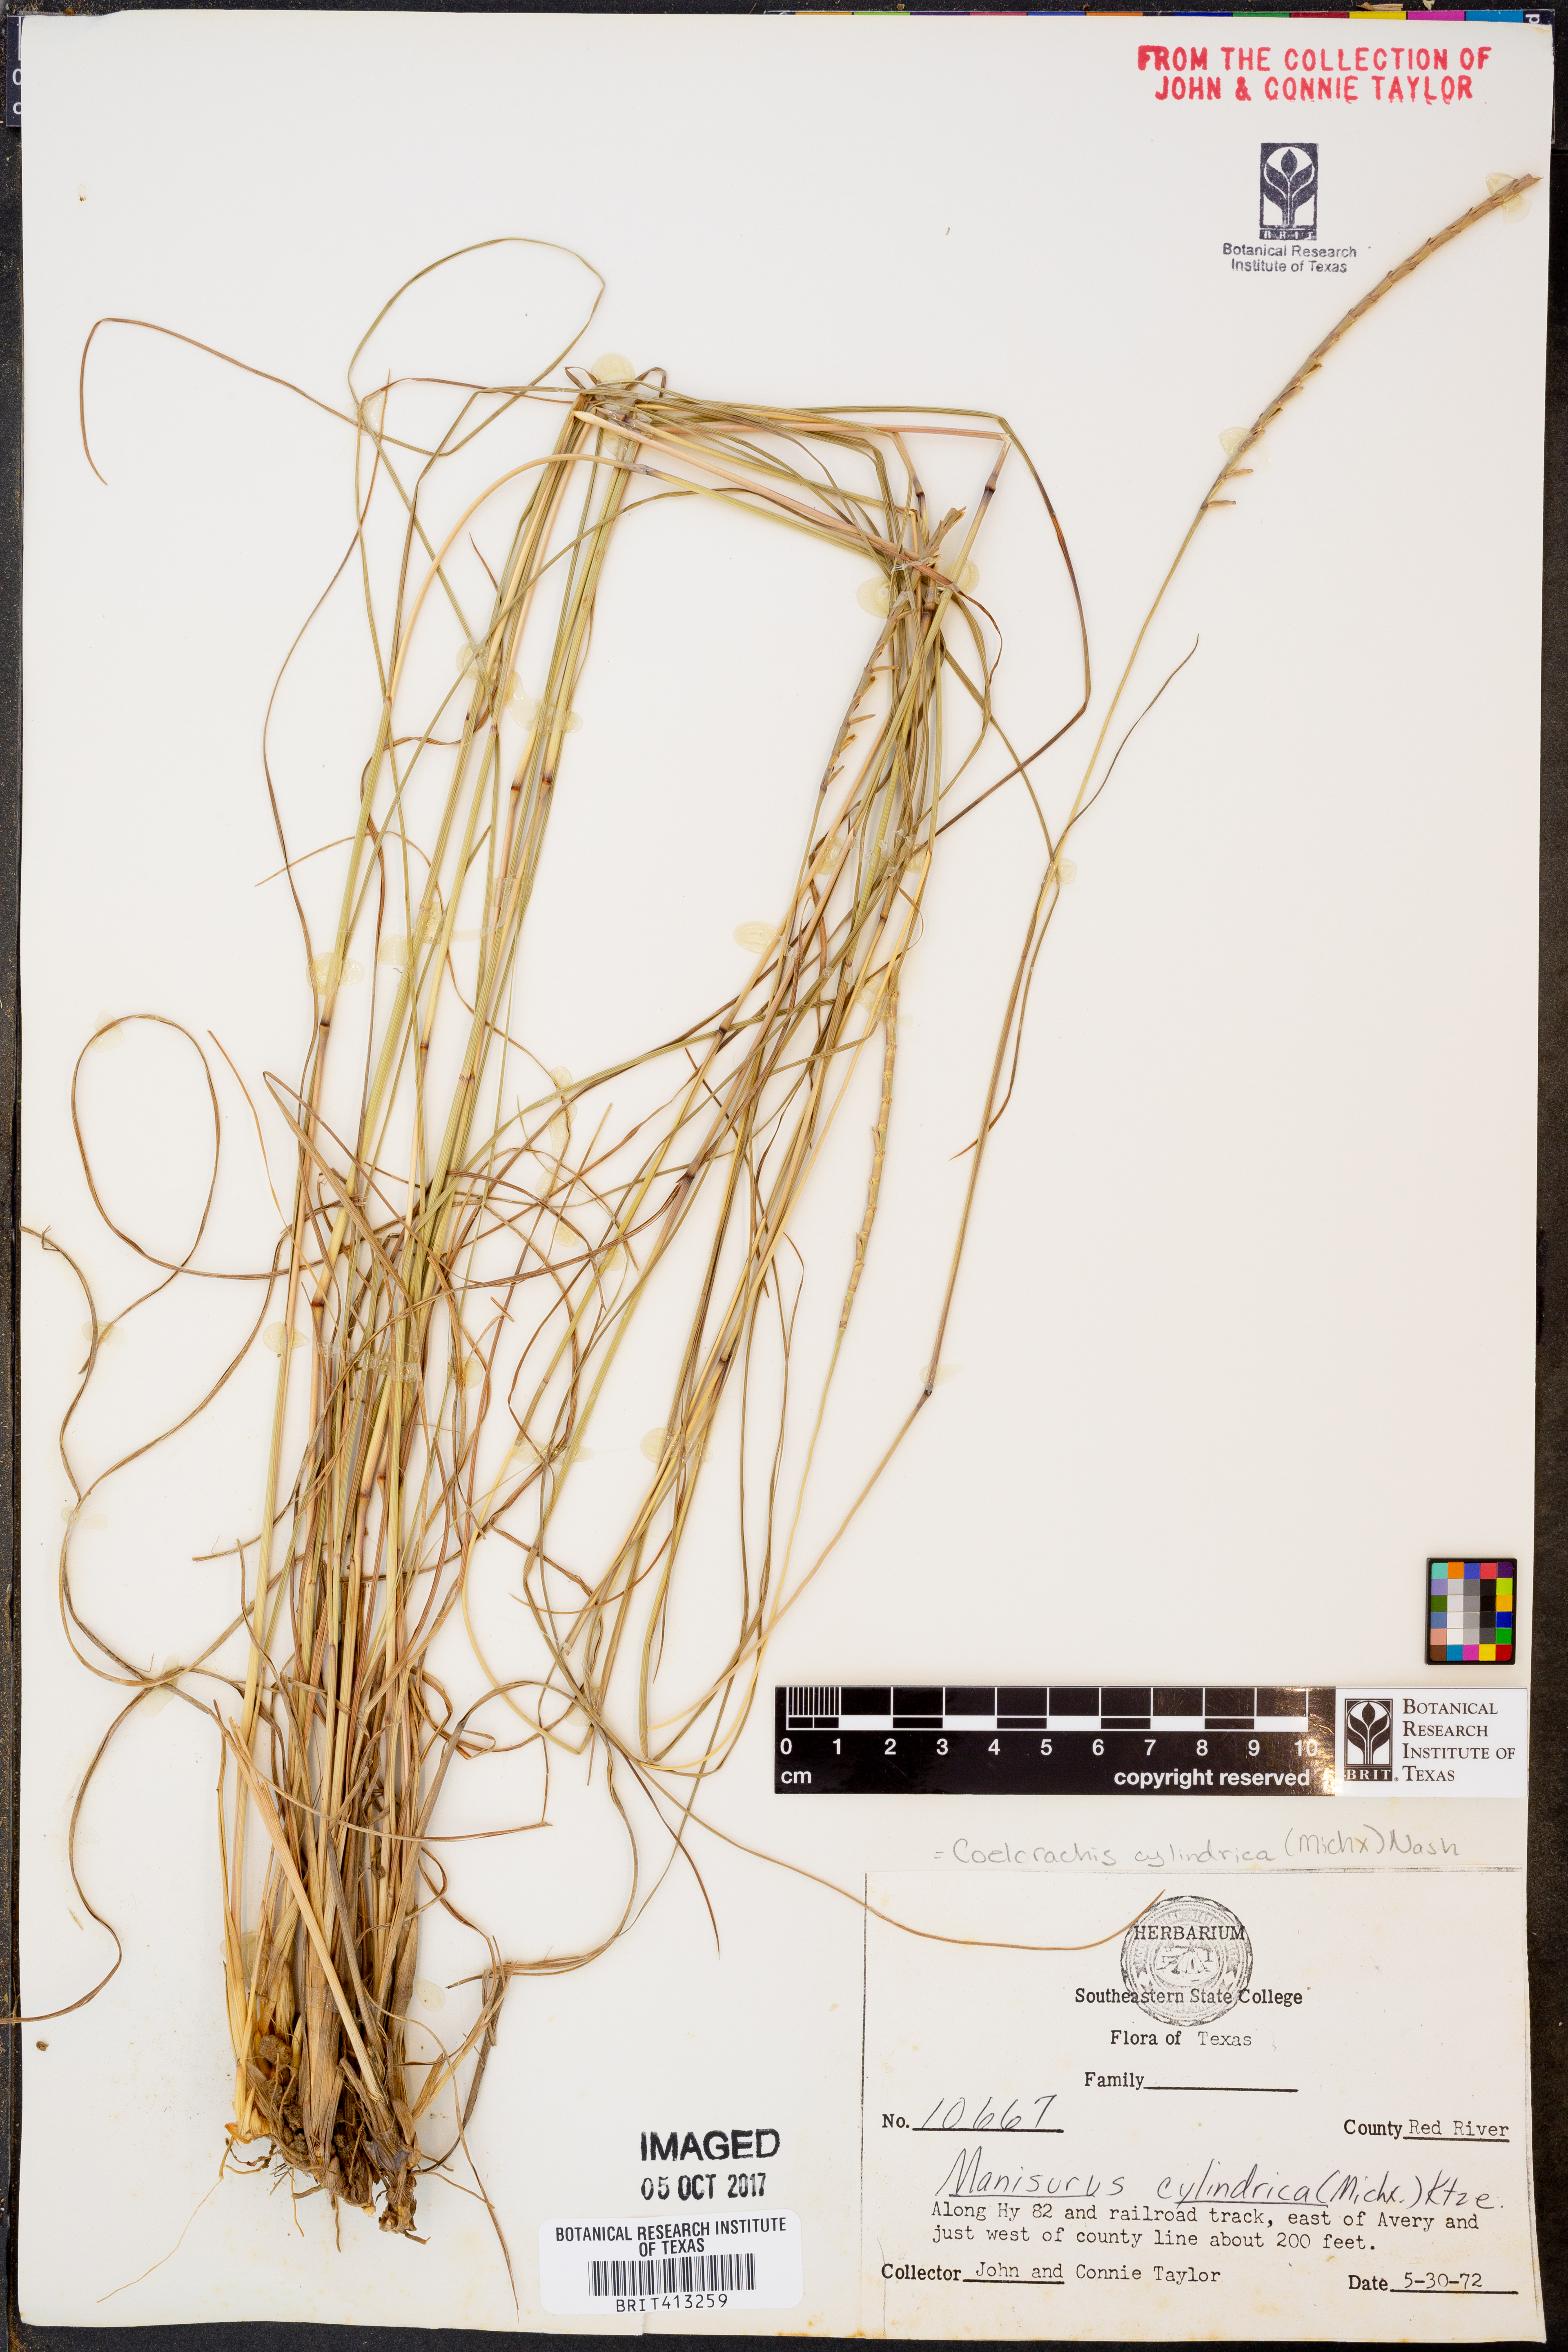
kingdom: Plantae
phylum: Tracheophyta
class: Liliopsida
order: Poales
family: Poaceae
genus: Rottboellia
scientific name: Rottboellia campestris
